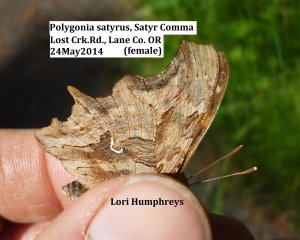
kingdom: Animalia
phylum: Arthropoda
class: Insecta
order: Lepidoptera
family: Nymphalidae
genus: Polygonia
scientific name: Polygonia satyrus
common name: Satyr Comma
